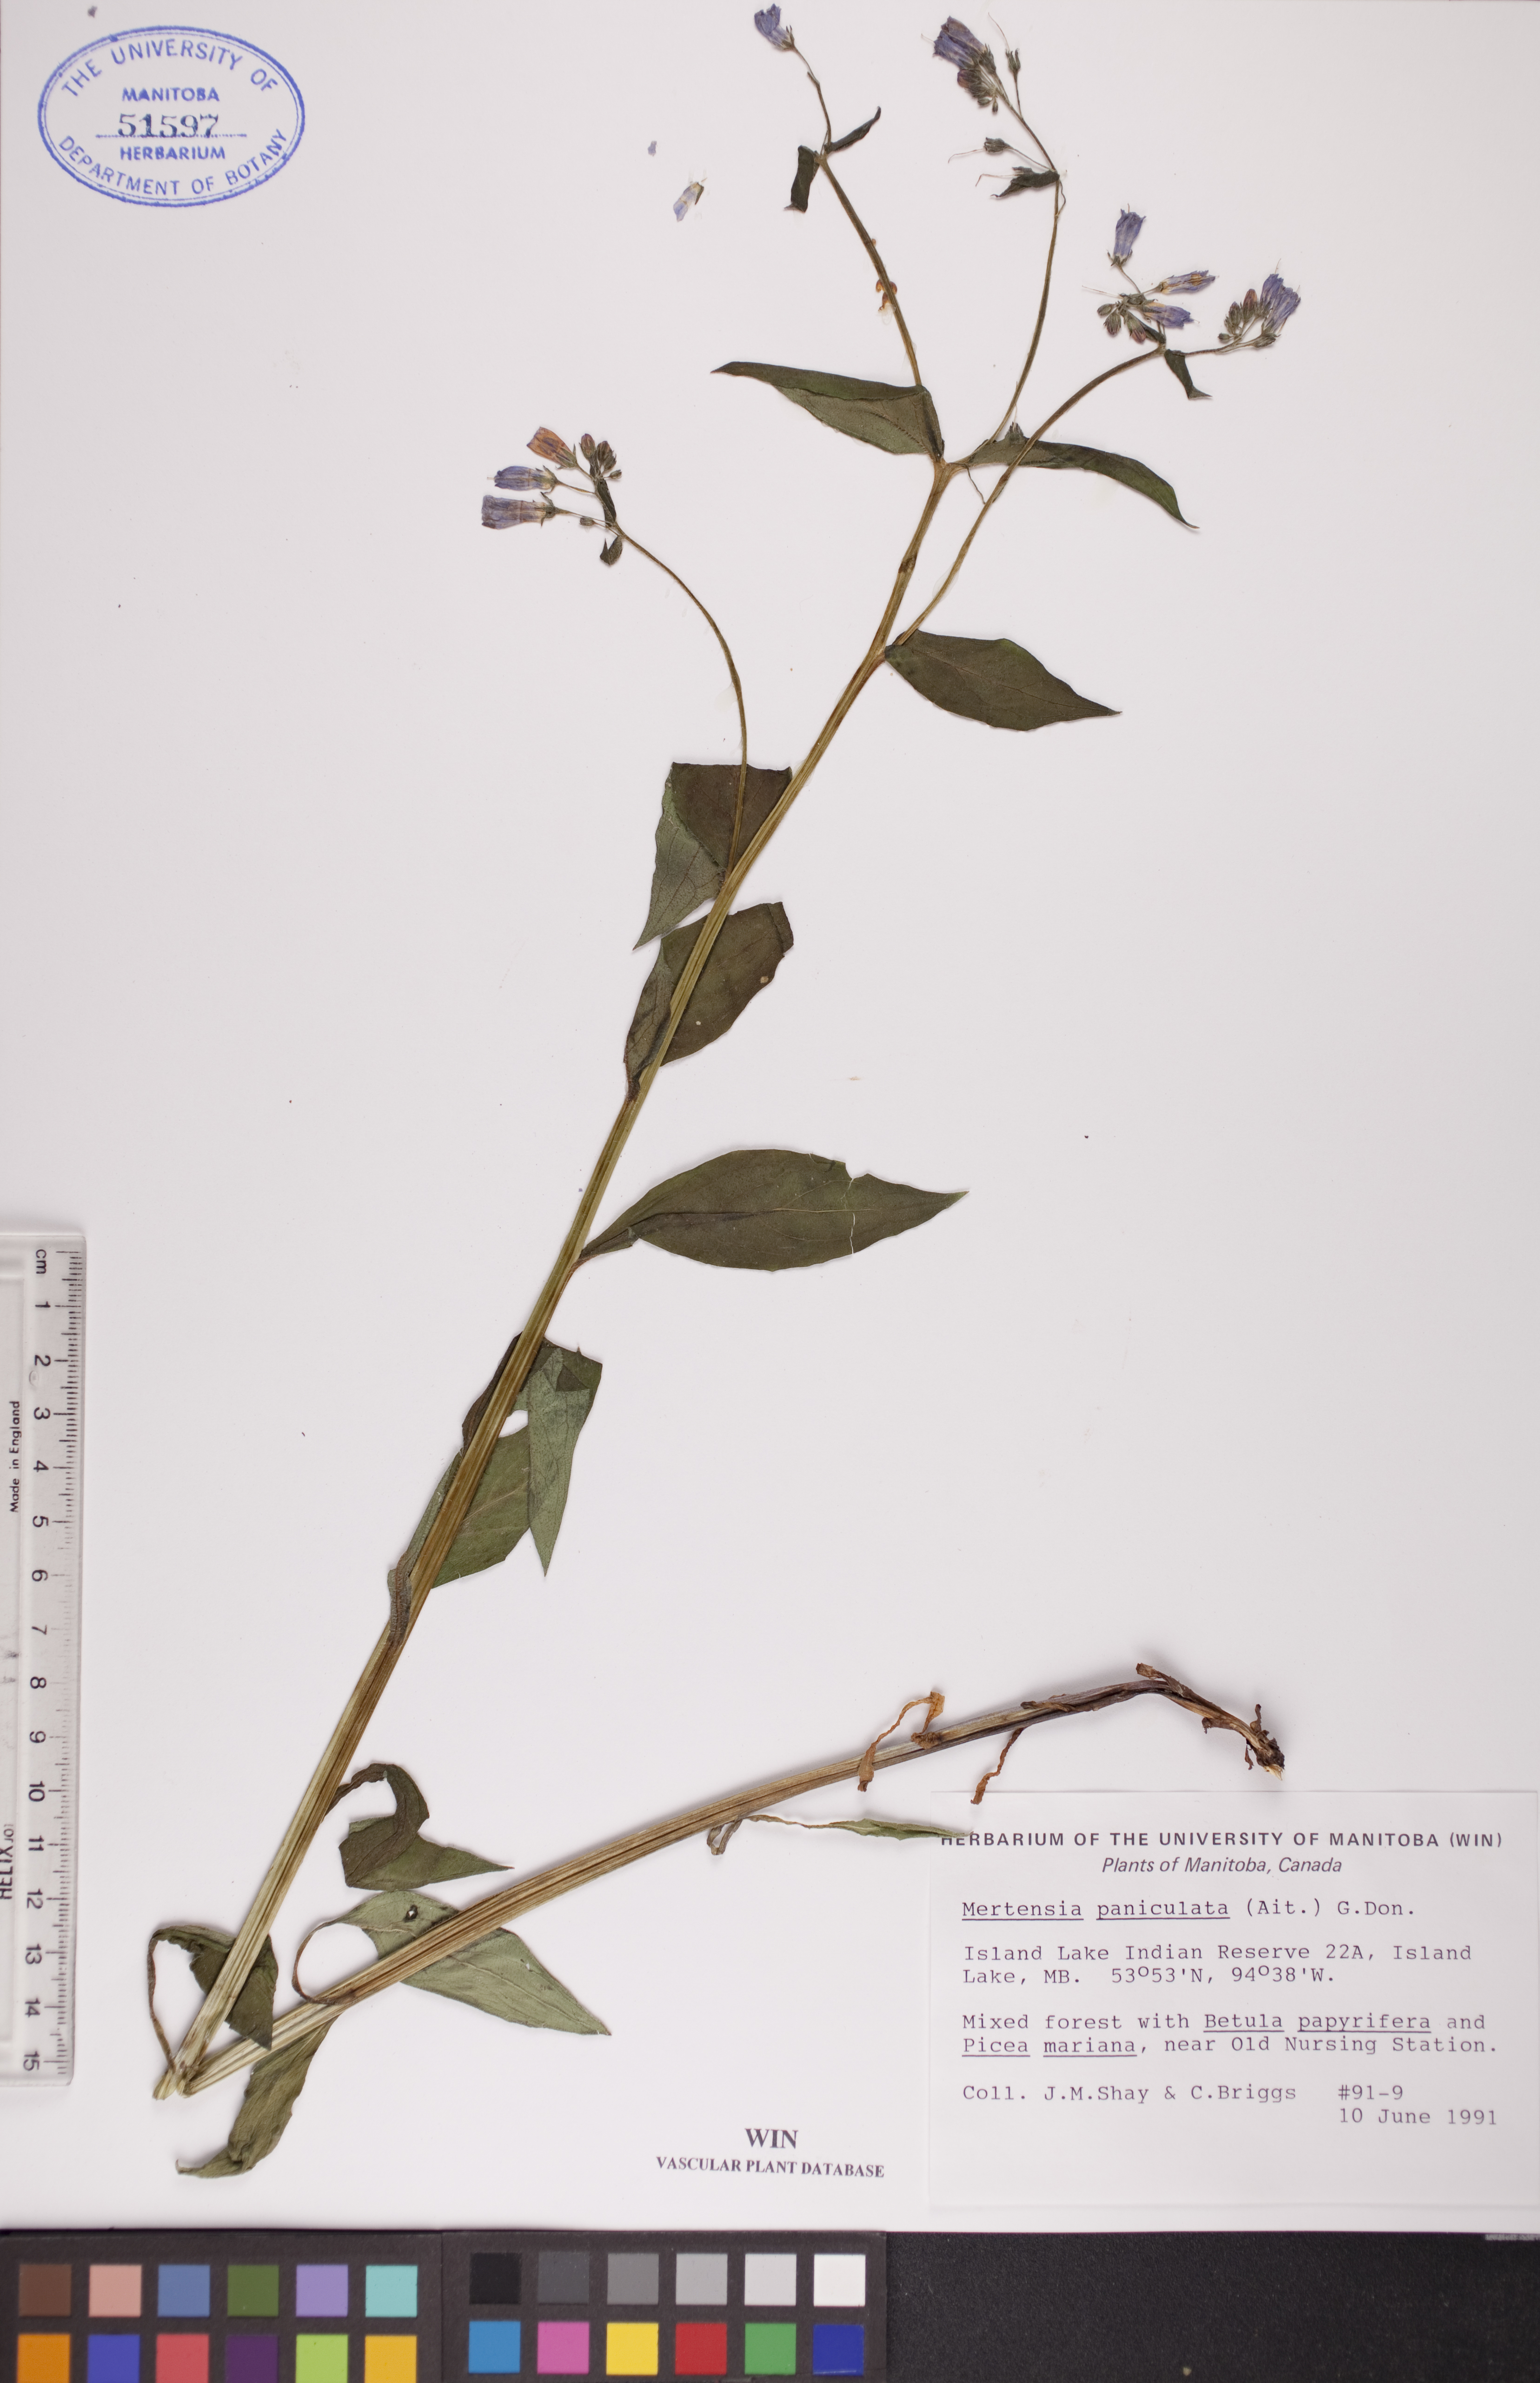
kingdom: Plantae
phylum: Tracheophyta
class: Magnoliopsida
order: Boraginales
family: Boraginaceae
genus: Mertensia
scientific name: Mertensia paniculata
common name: Panicled bluebells
